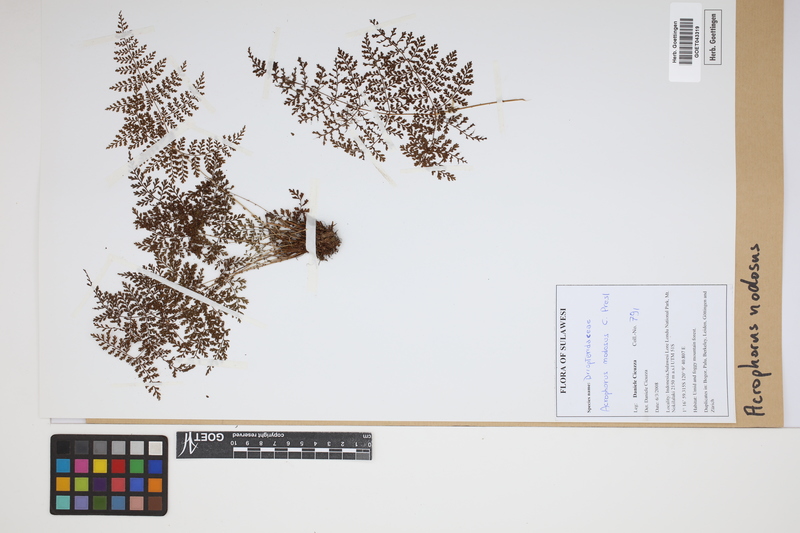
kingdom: Plantae
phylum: Tracheophyta
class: Polypodiopsida
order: Polypodiales
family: Dryopteridaceae
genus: Dryopteris
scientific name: Dryopteris nodosa
